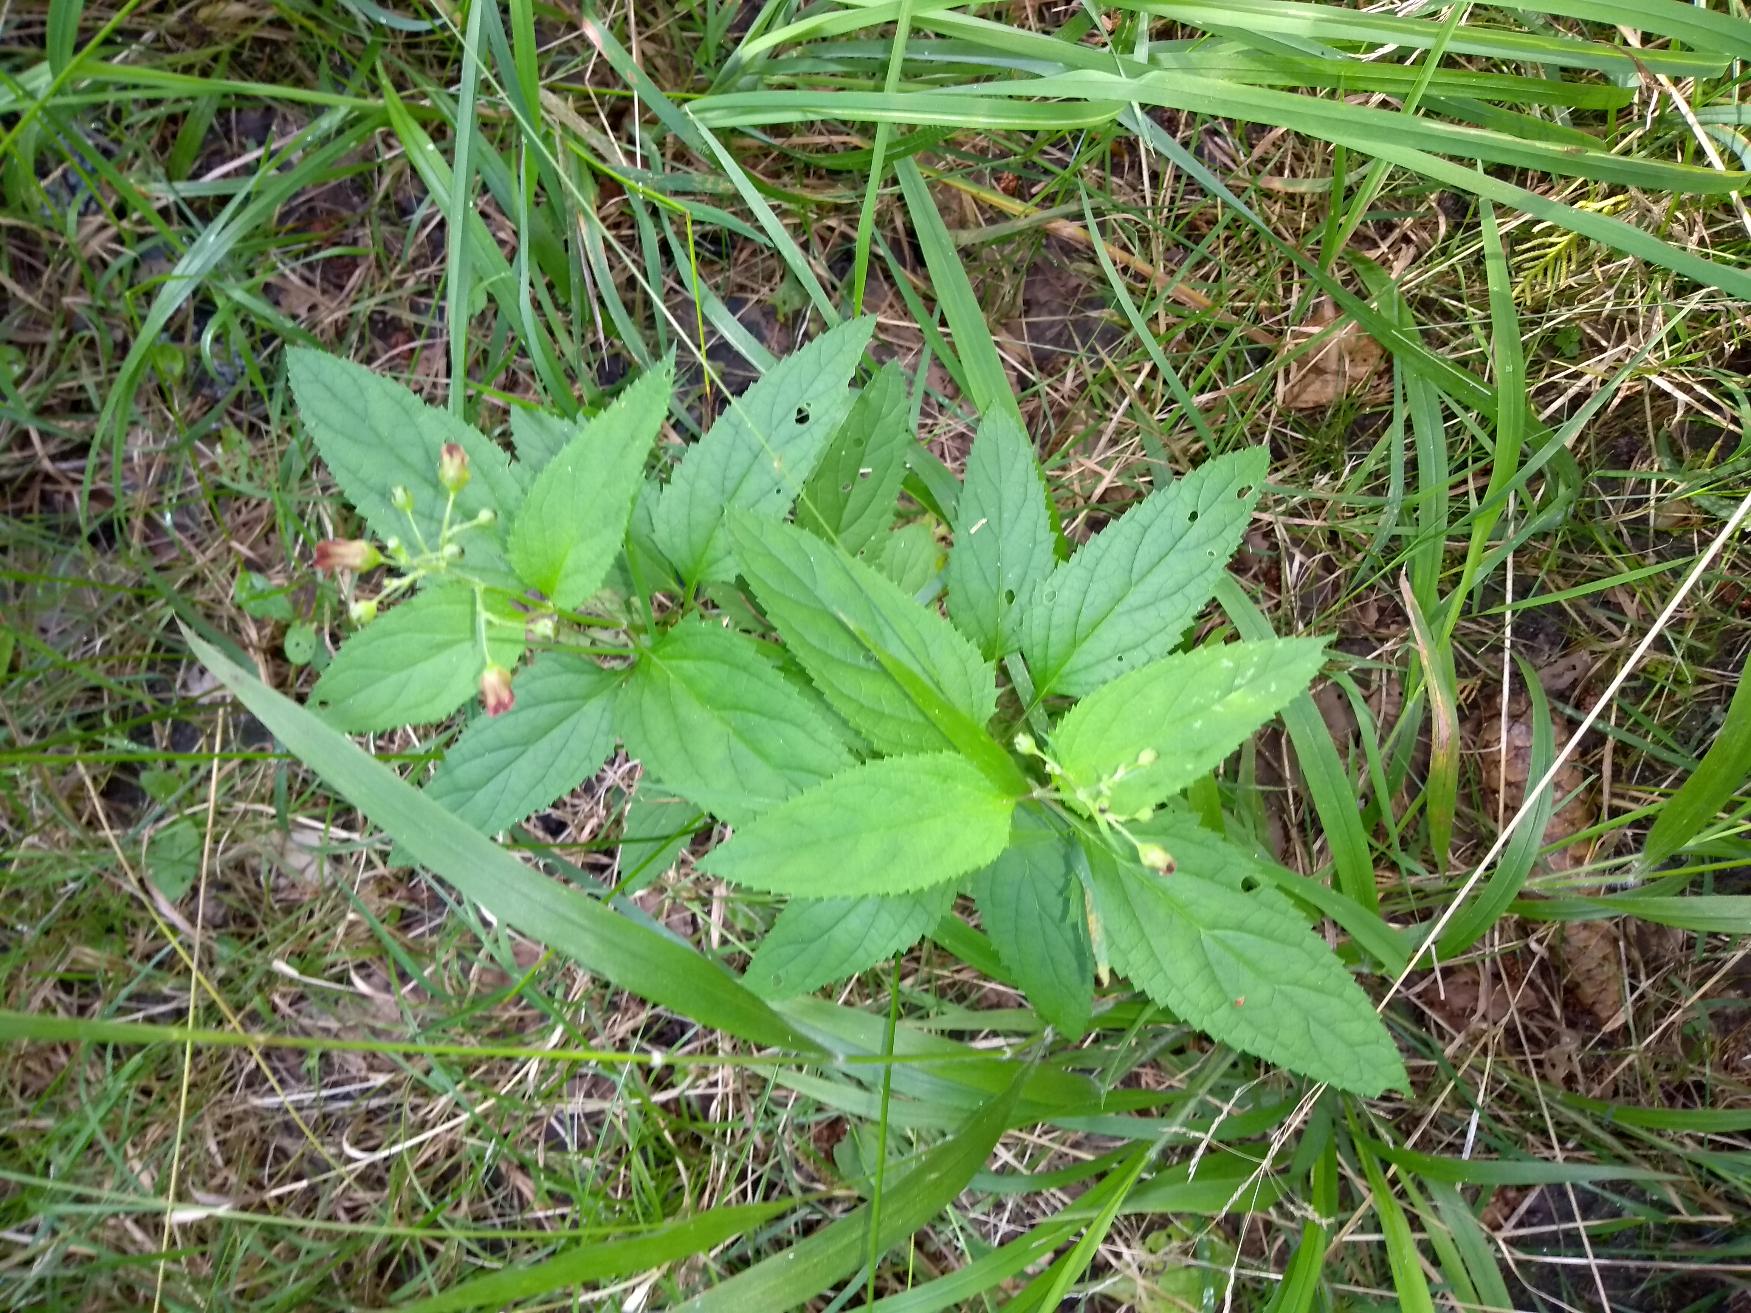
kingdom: Plantae
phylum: Tracheophyta
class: Magnoliopsida
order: Lamiales
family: Scrophulariaceae
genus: Scrophularia
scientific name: Scrophularia nodosa
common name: Knoldet brunrod
